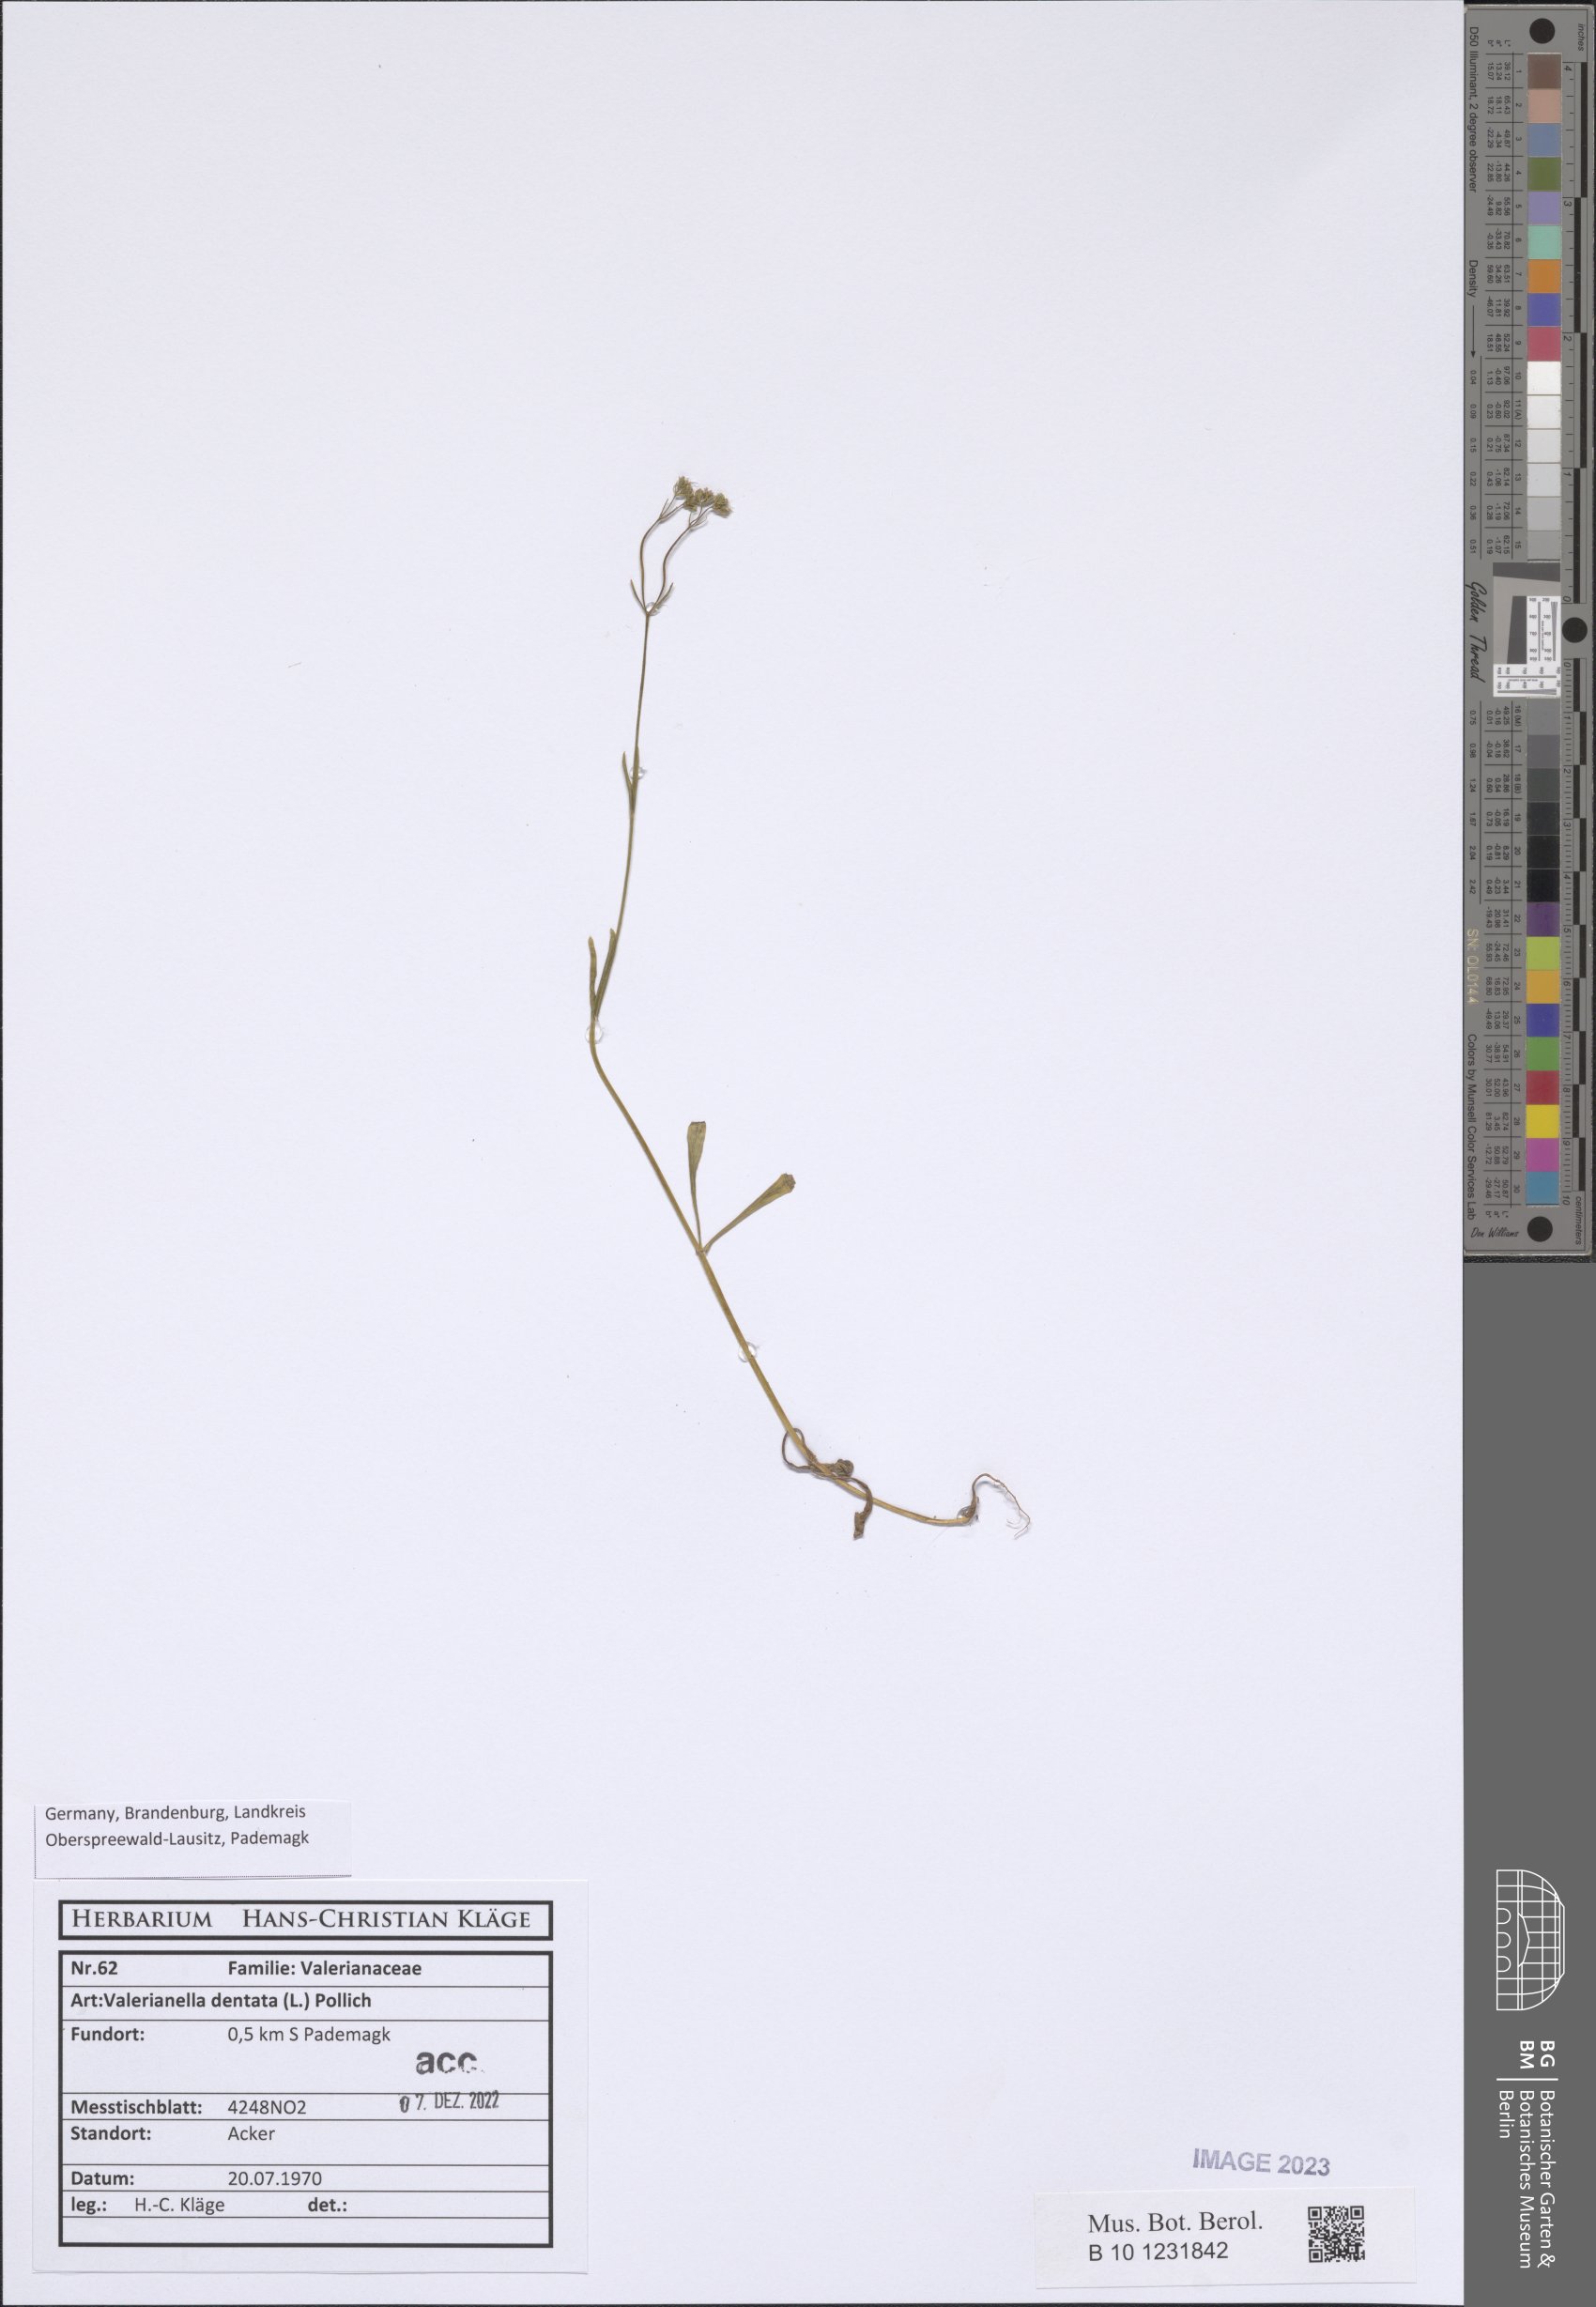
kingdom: Plantae
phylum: Tracheophyta
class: Magnoliopsida
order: Dipsacales
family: Caprifoliaceae
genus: Valerianella
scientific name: Valerianella dentata
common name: Narrow-fruited cornsalad
